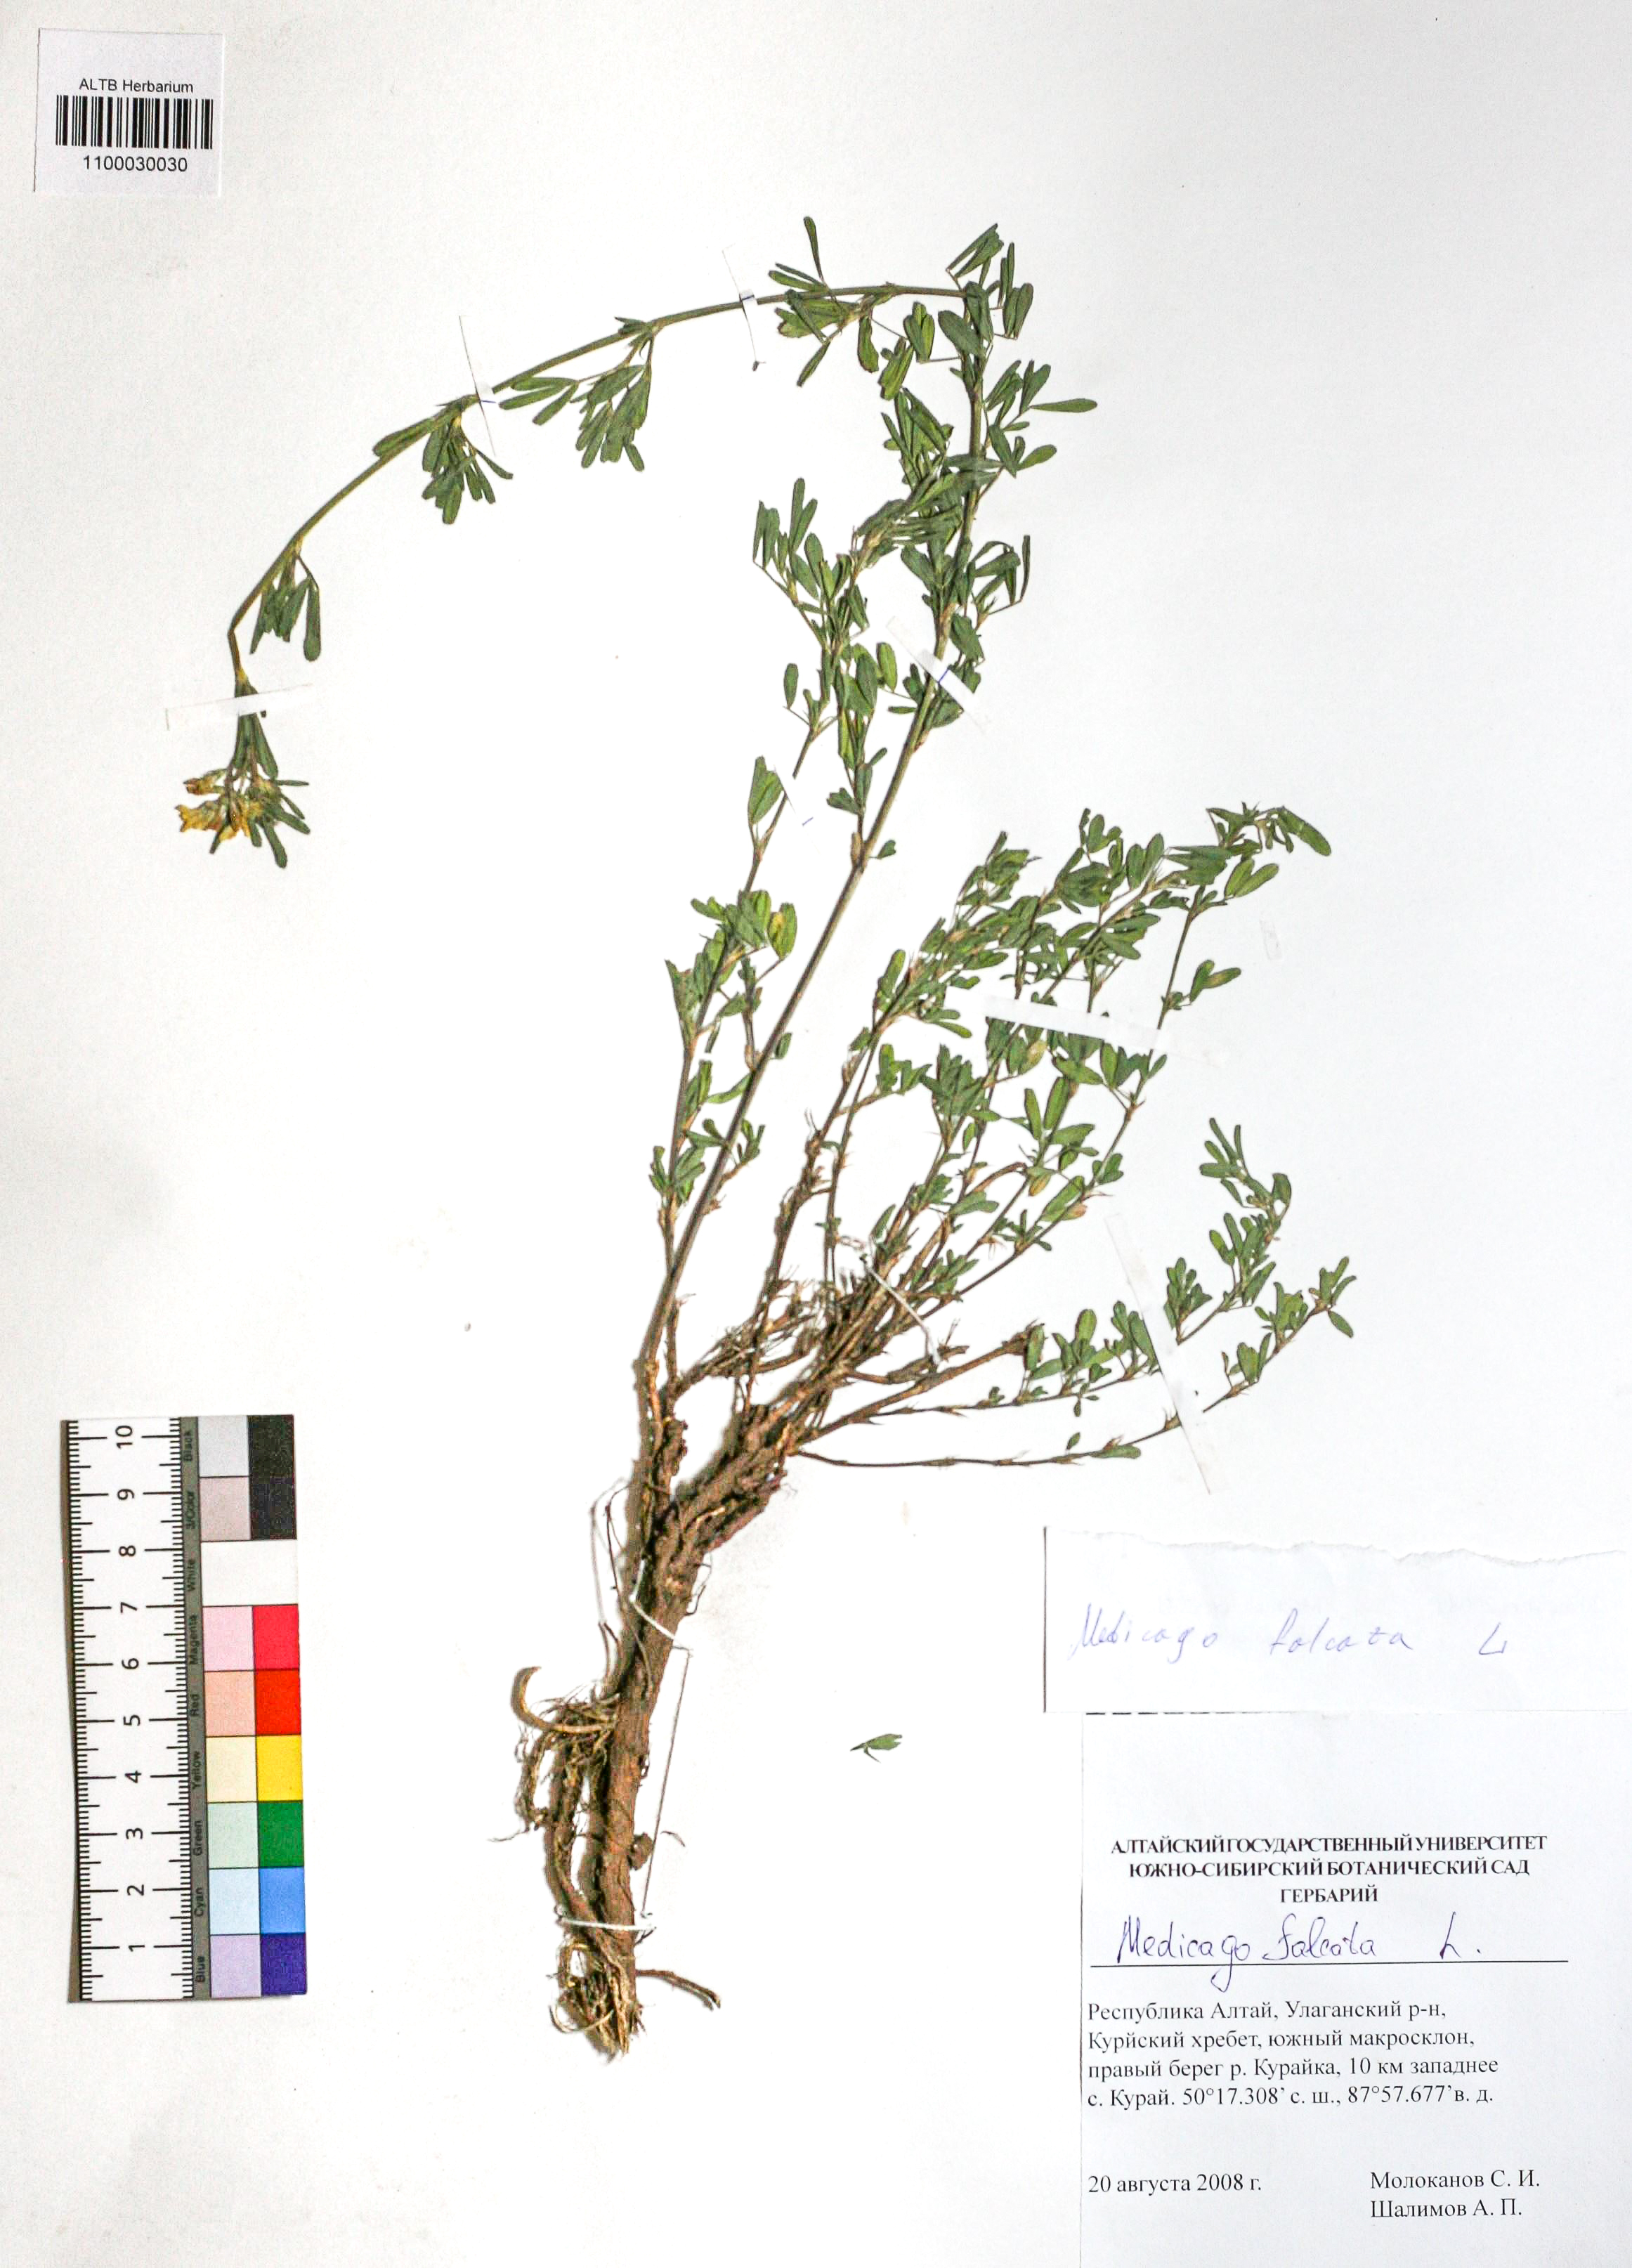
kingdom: Plantae
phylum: Tracheophyta
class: Magnoliopsida
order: Fabales
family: Fabaceae
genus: Medicago
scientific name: Medicago falcata
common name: Sickle medick
